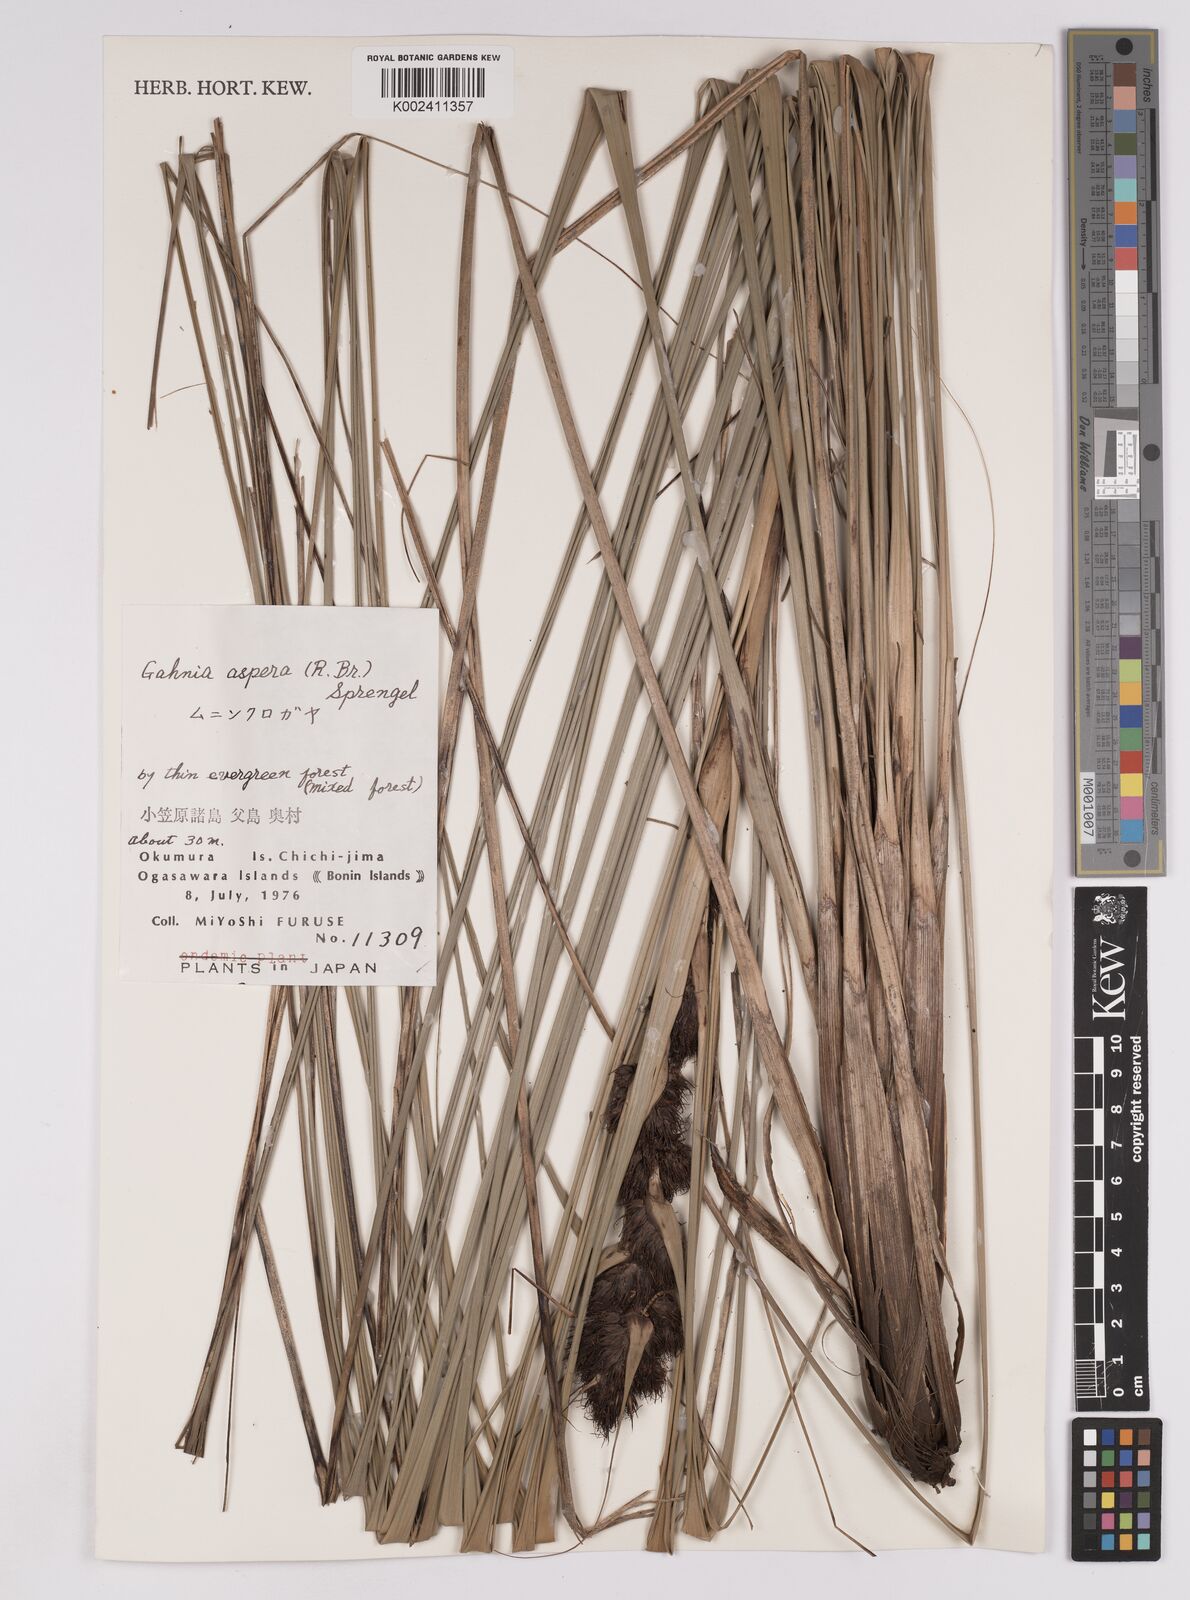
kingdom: Plantae
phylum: Tracheophyta
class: Liliopsida
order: Poales
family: Cyperaceae
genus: Gahnia
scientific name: Gahnia aspera
